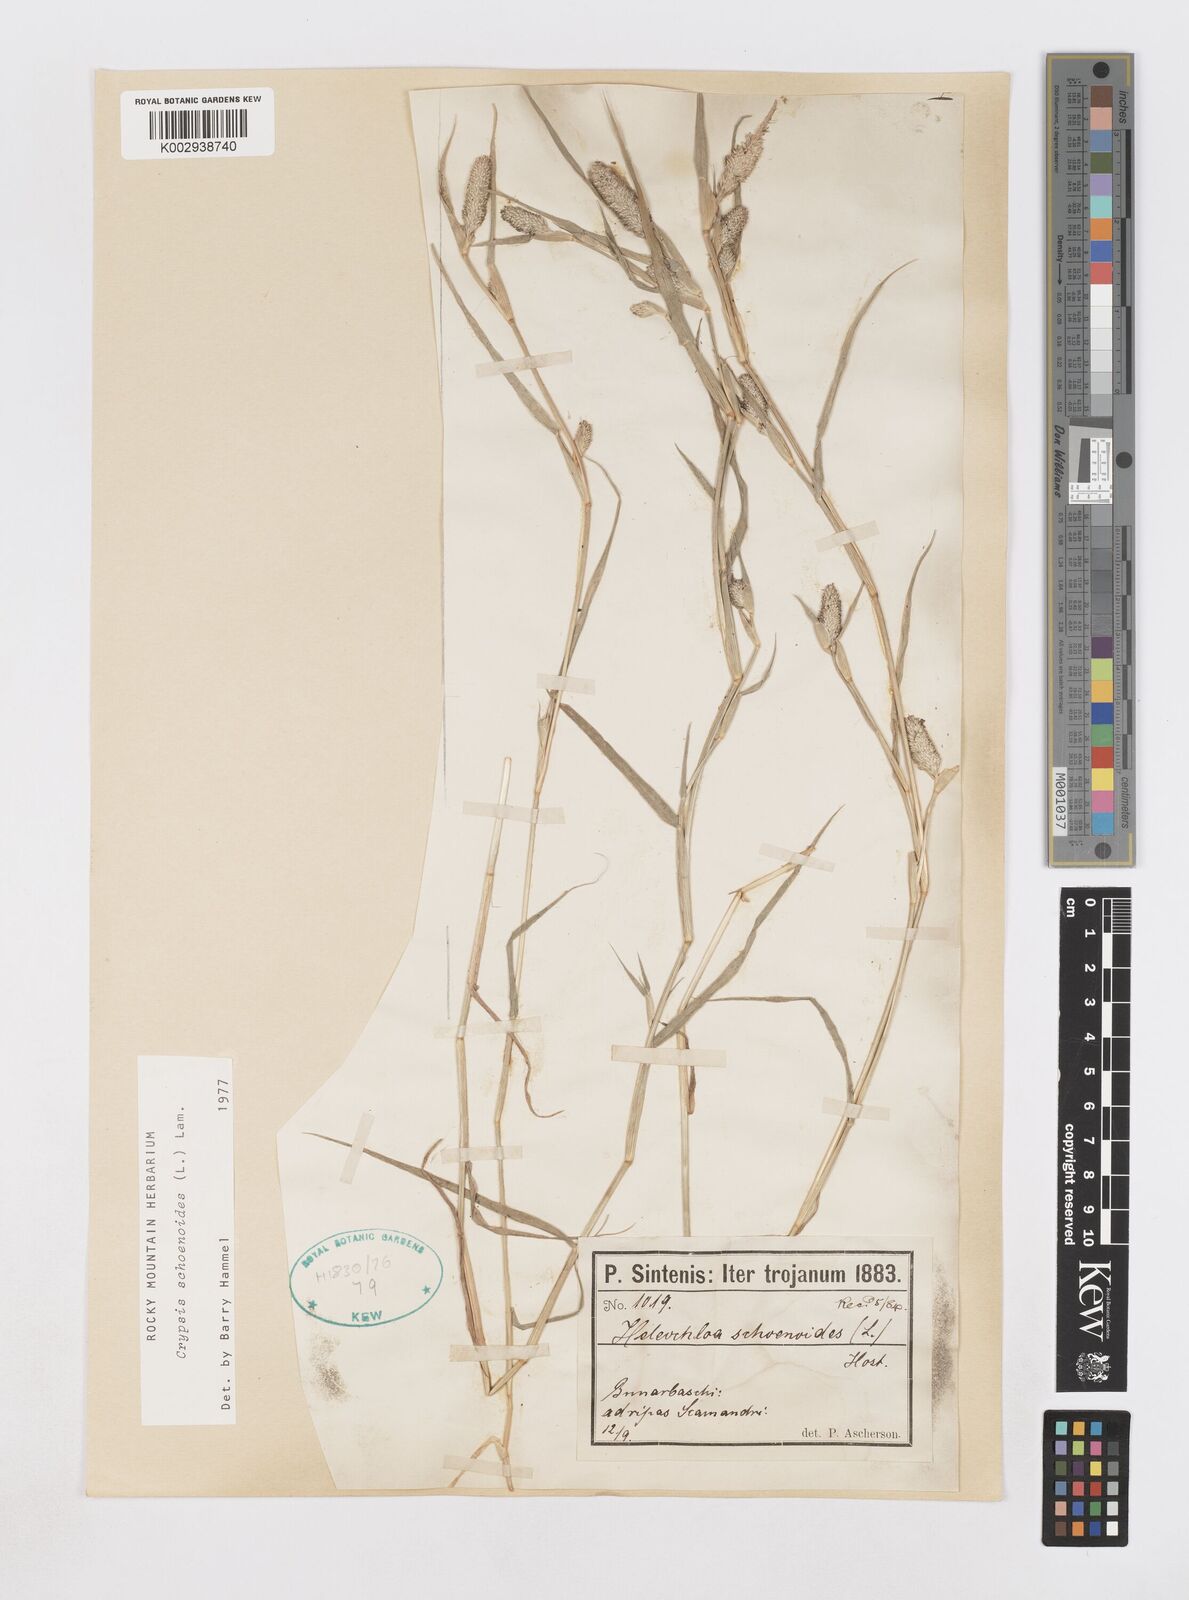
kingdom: Plantae
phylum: Tracheophyta
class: Liliopsida
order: Poales
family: Poaceae
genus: Sporobolus
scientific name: Sporobolus schoenoides
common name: Rush-like timothy
